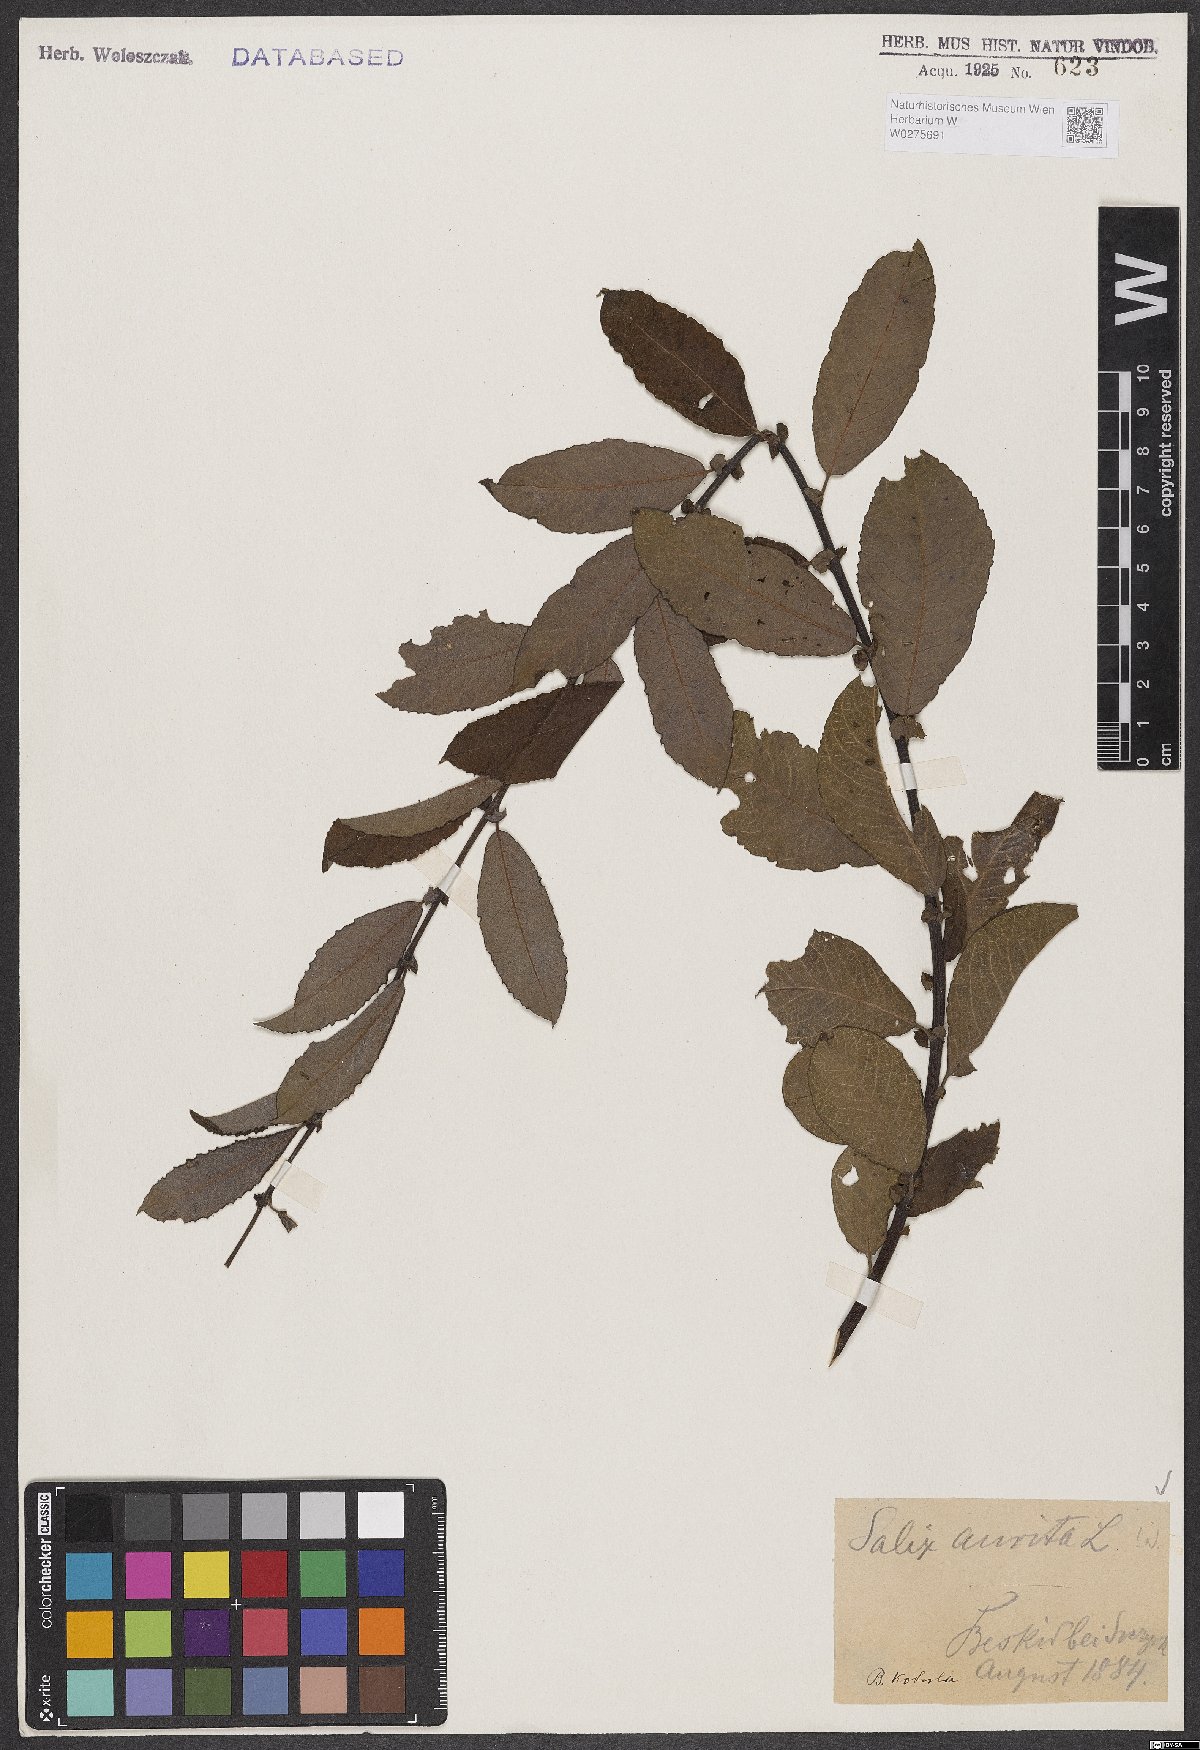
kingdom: Plantae
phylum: Tracheophyta
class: Magnoliopsida
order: Malpighiales
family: Salicaceae
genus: Salix
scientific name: Salix aurita
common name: Eared willow
